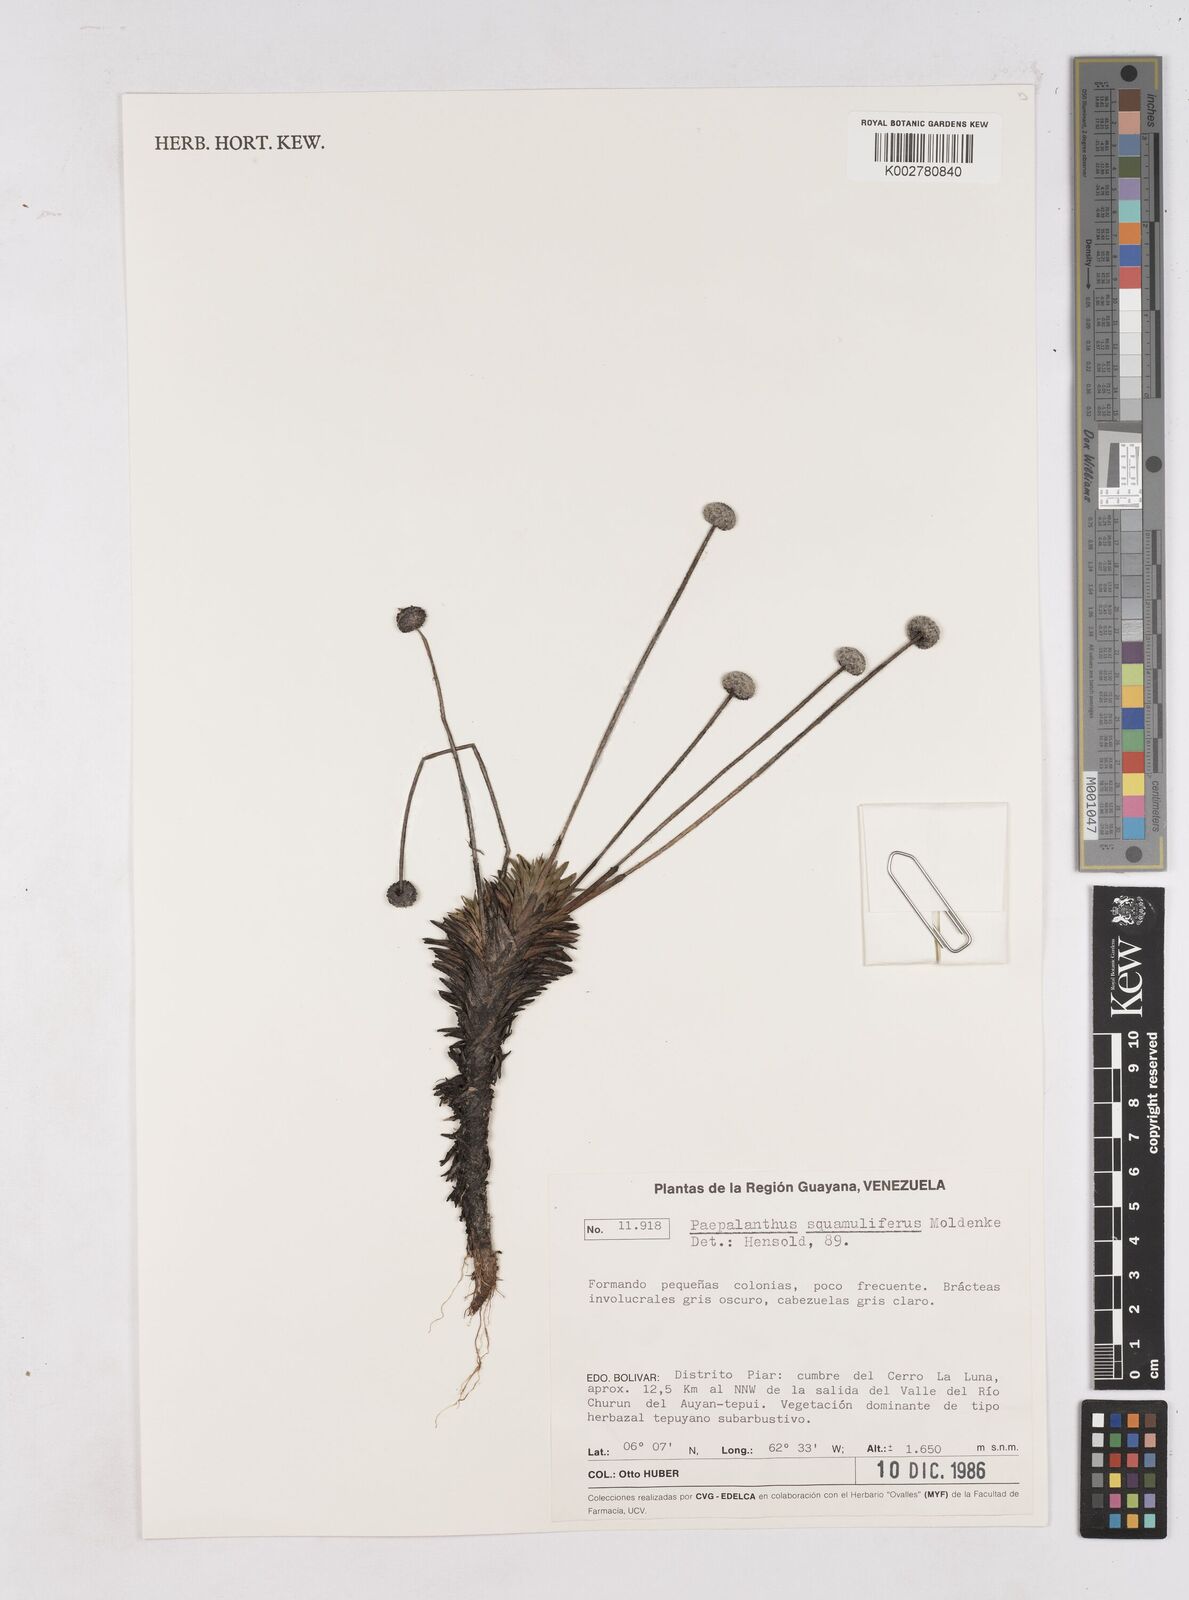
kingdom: Plantae
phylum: Tracheophyta
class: Liliopsida
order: Poales
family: Eriocaulaceae
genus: Paepalanthus
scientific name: Paepalanthus squamilifer
